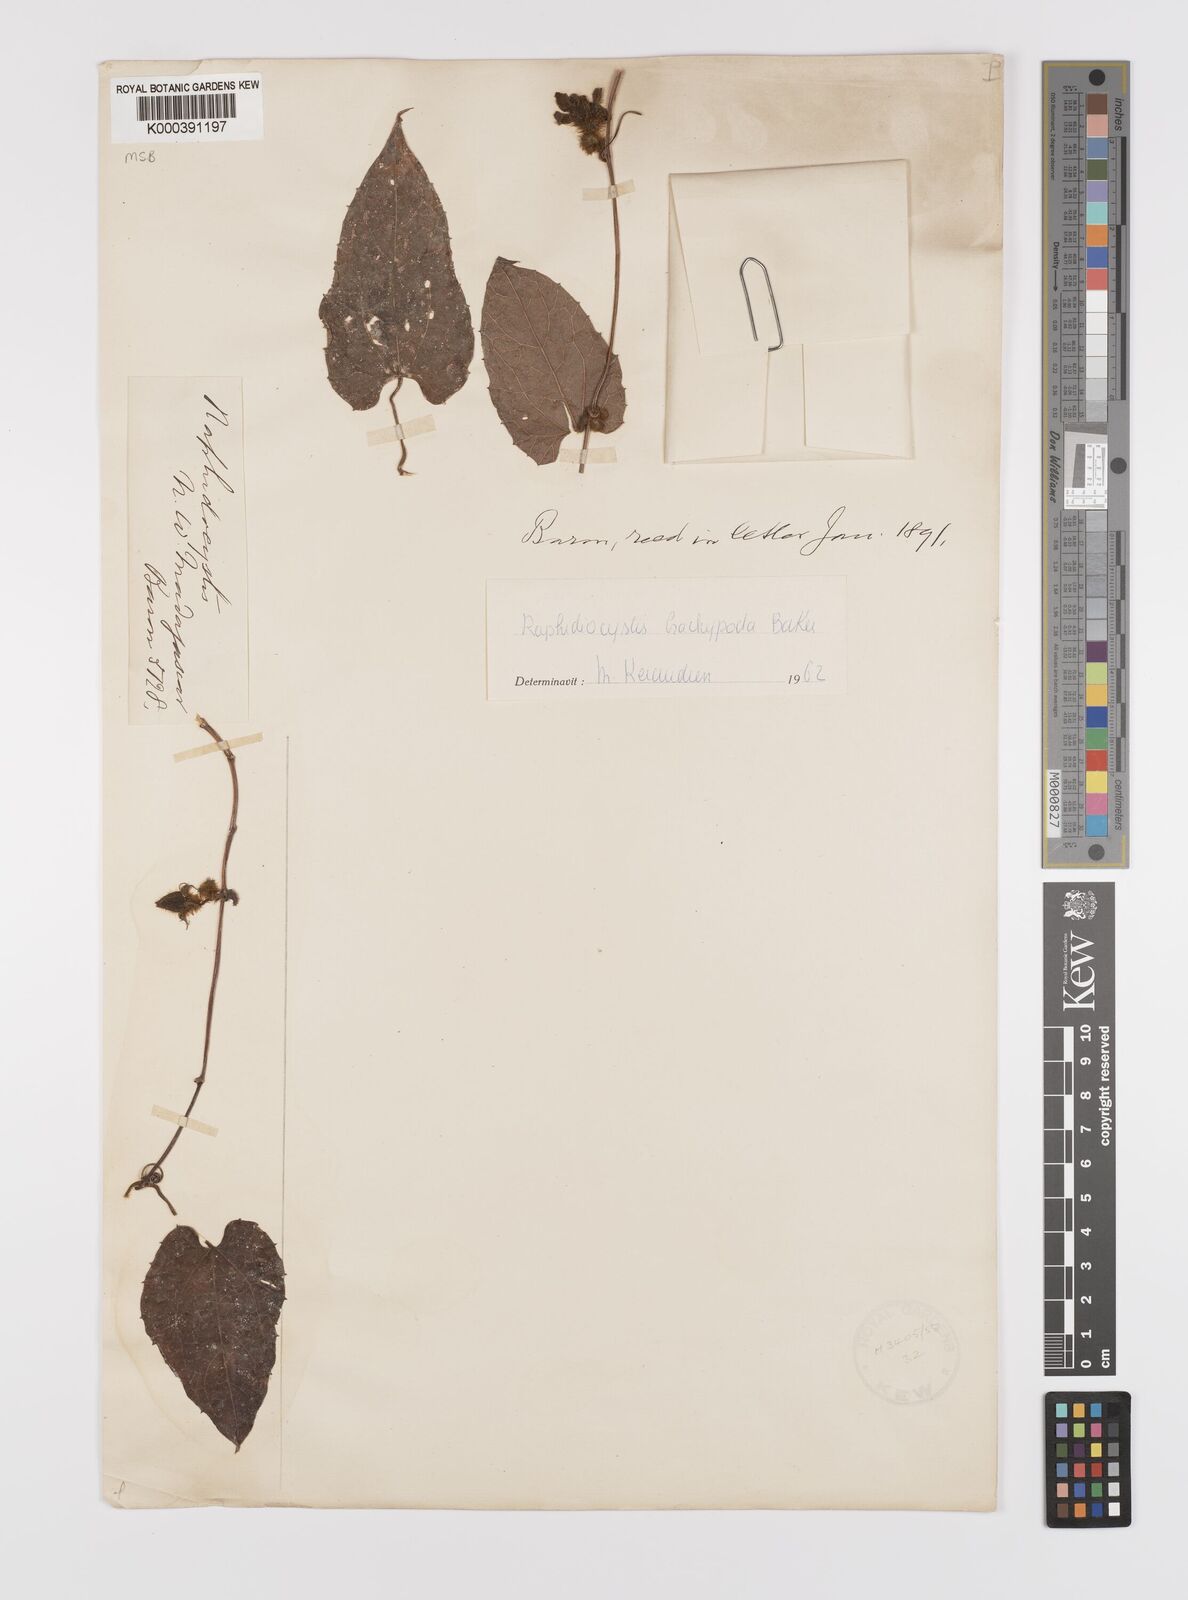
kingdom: Plantae
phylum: Tracheophyta
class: Magnoliopsida
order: Cucurbitales
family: Cucurbitaceae
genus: Raphidiocystis
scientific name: Raphidiocystis brachypoda
